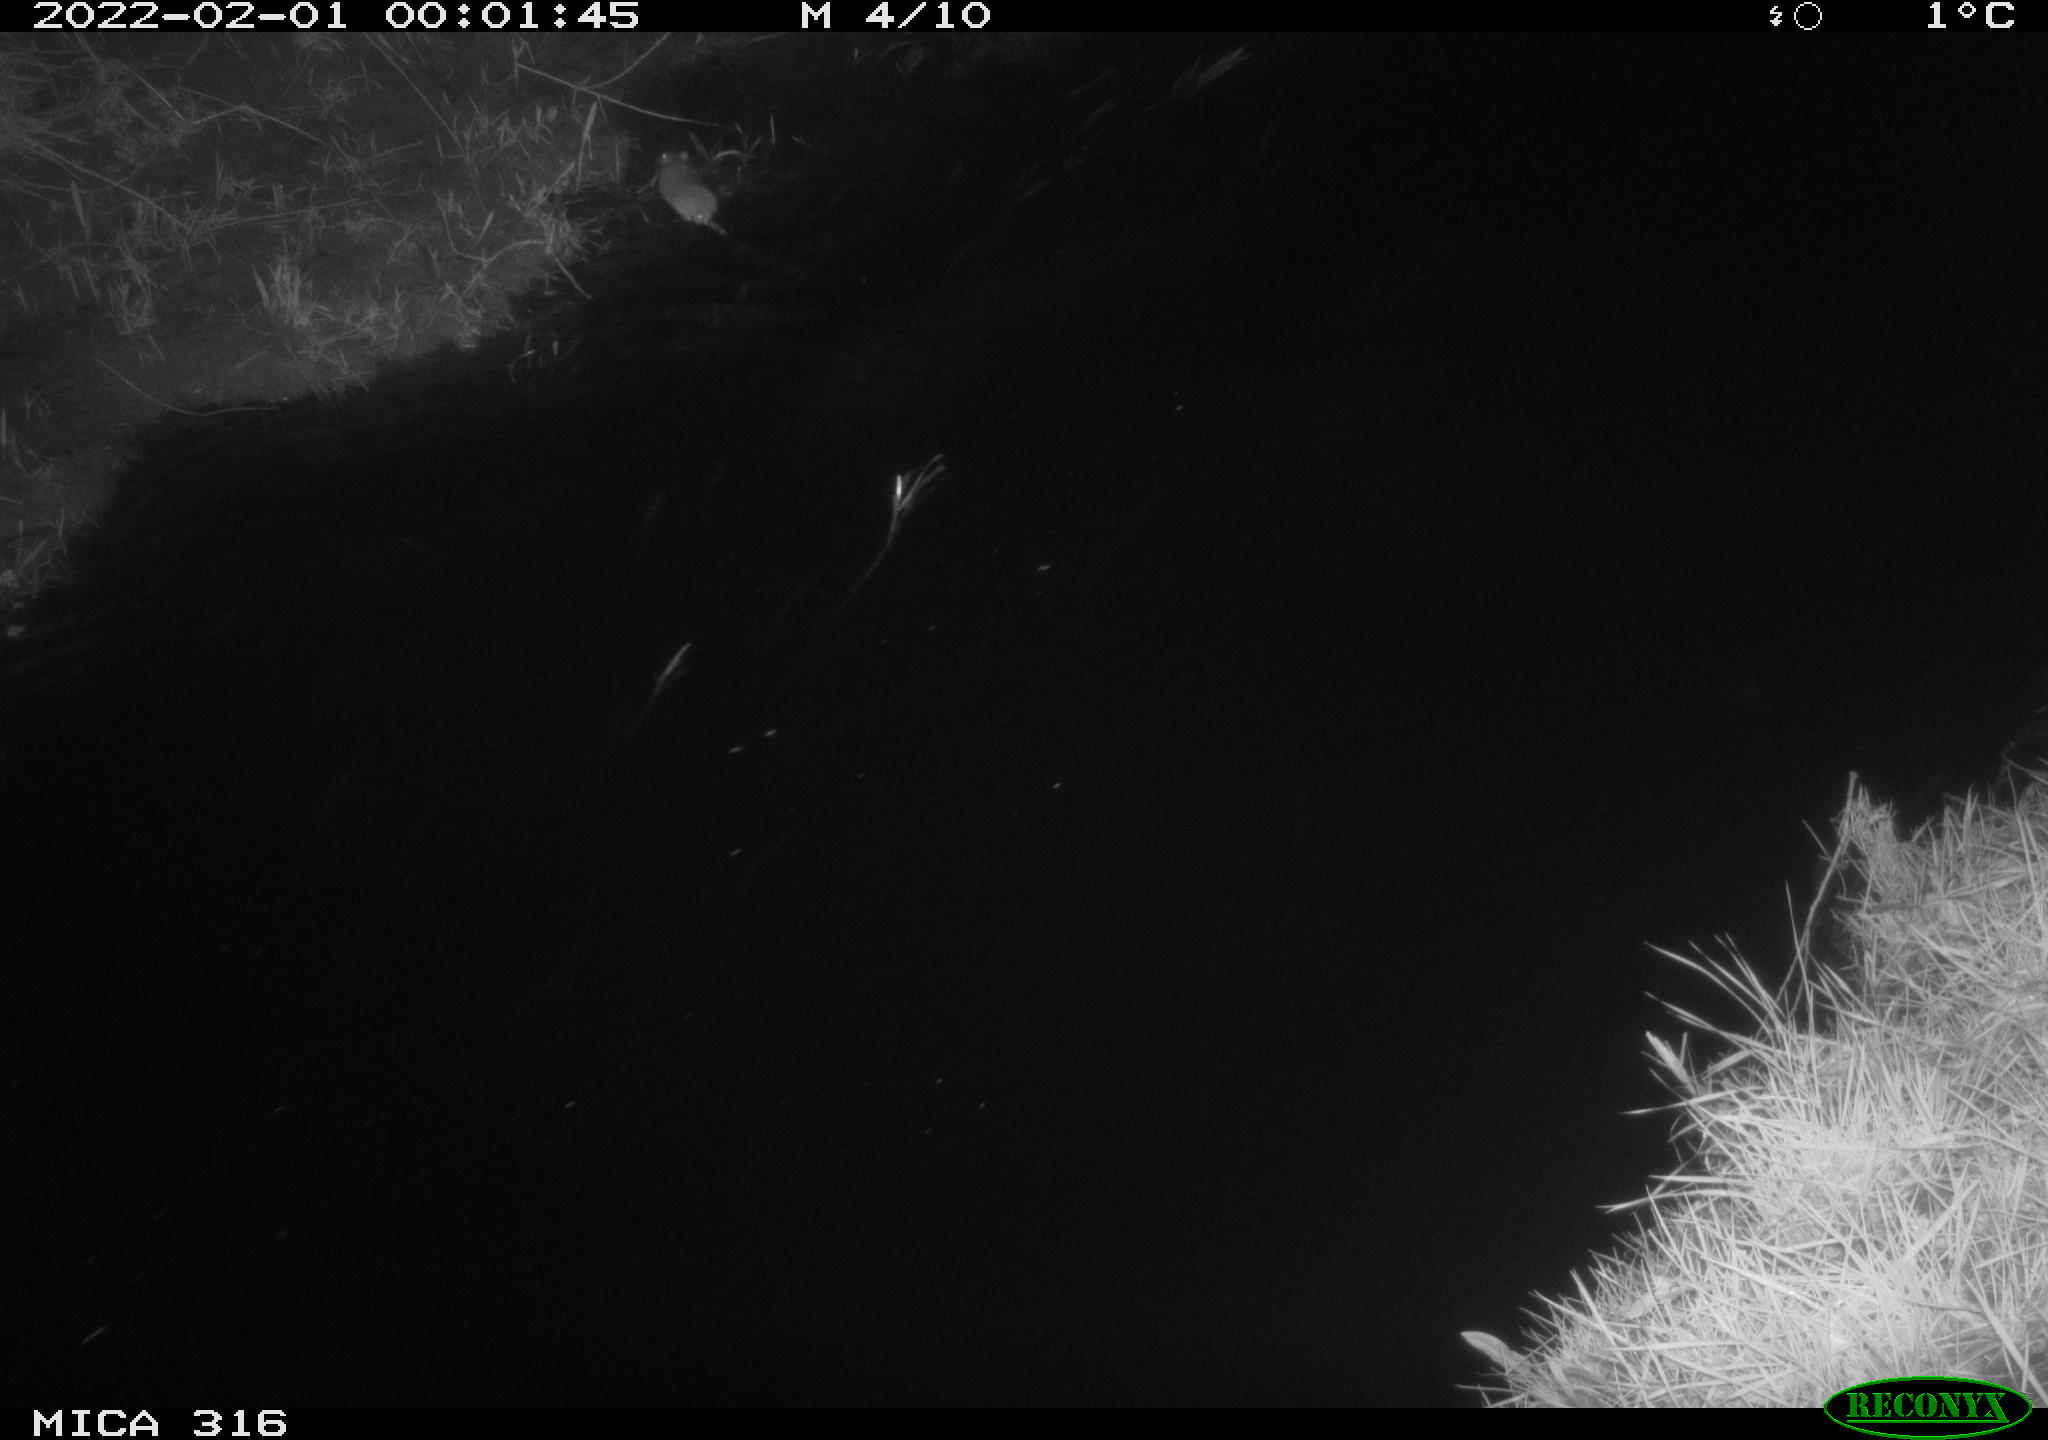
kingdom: Animalia
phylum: Chordata
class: Mammalia
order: Rodentia
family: Muridae
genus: Rattus
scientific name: Rattus norvegicus
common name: Brown rat
